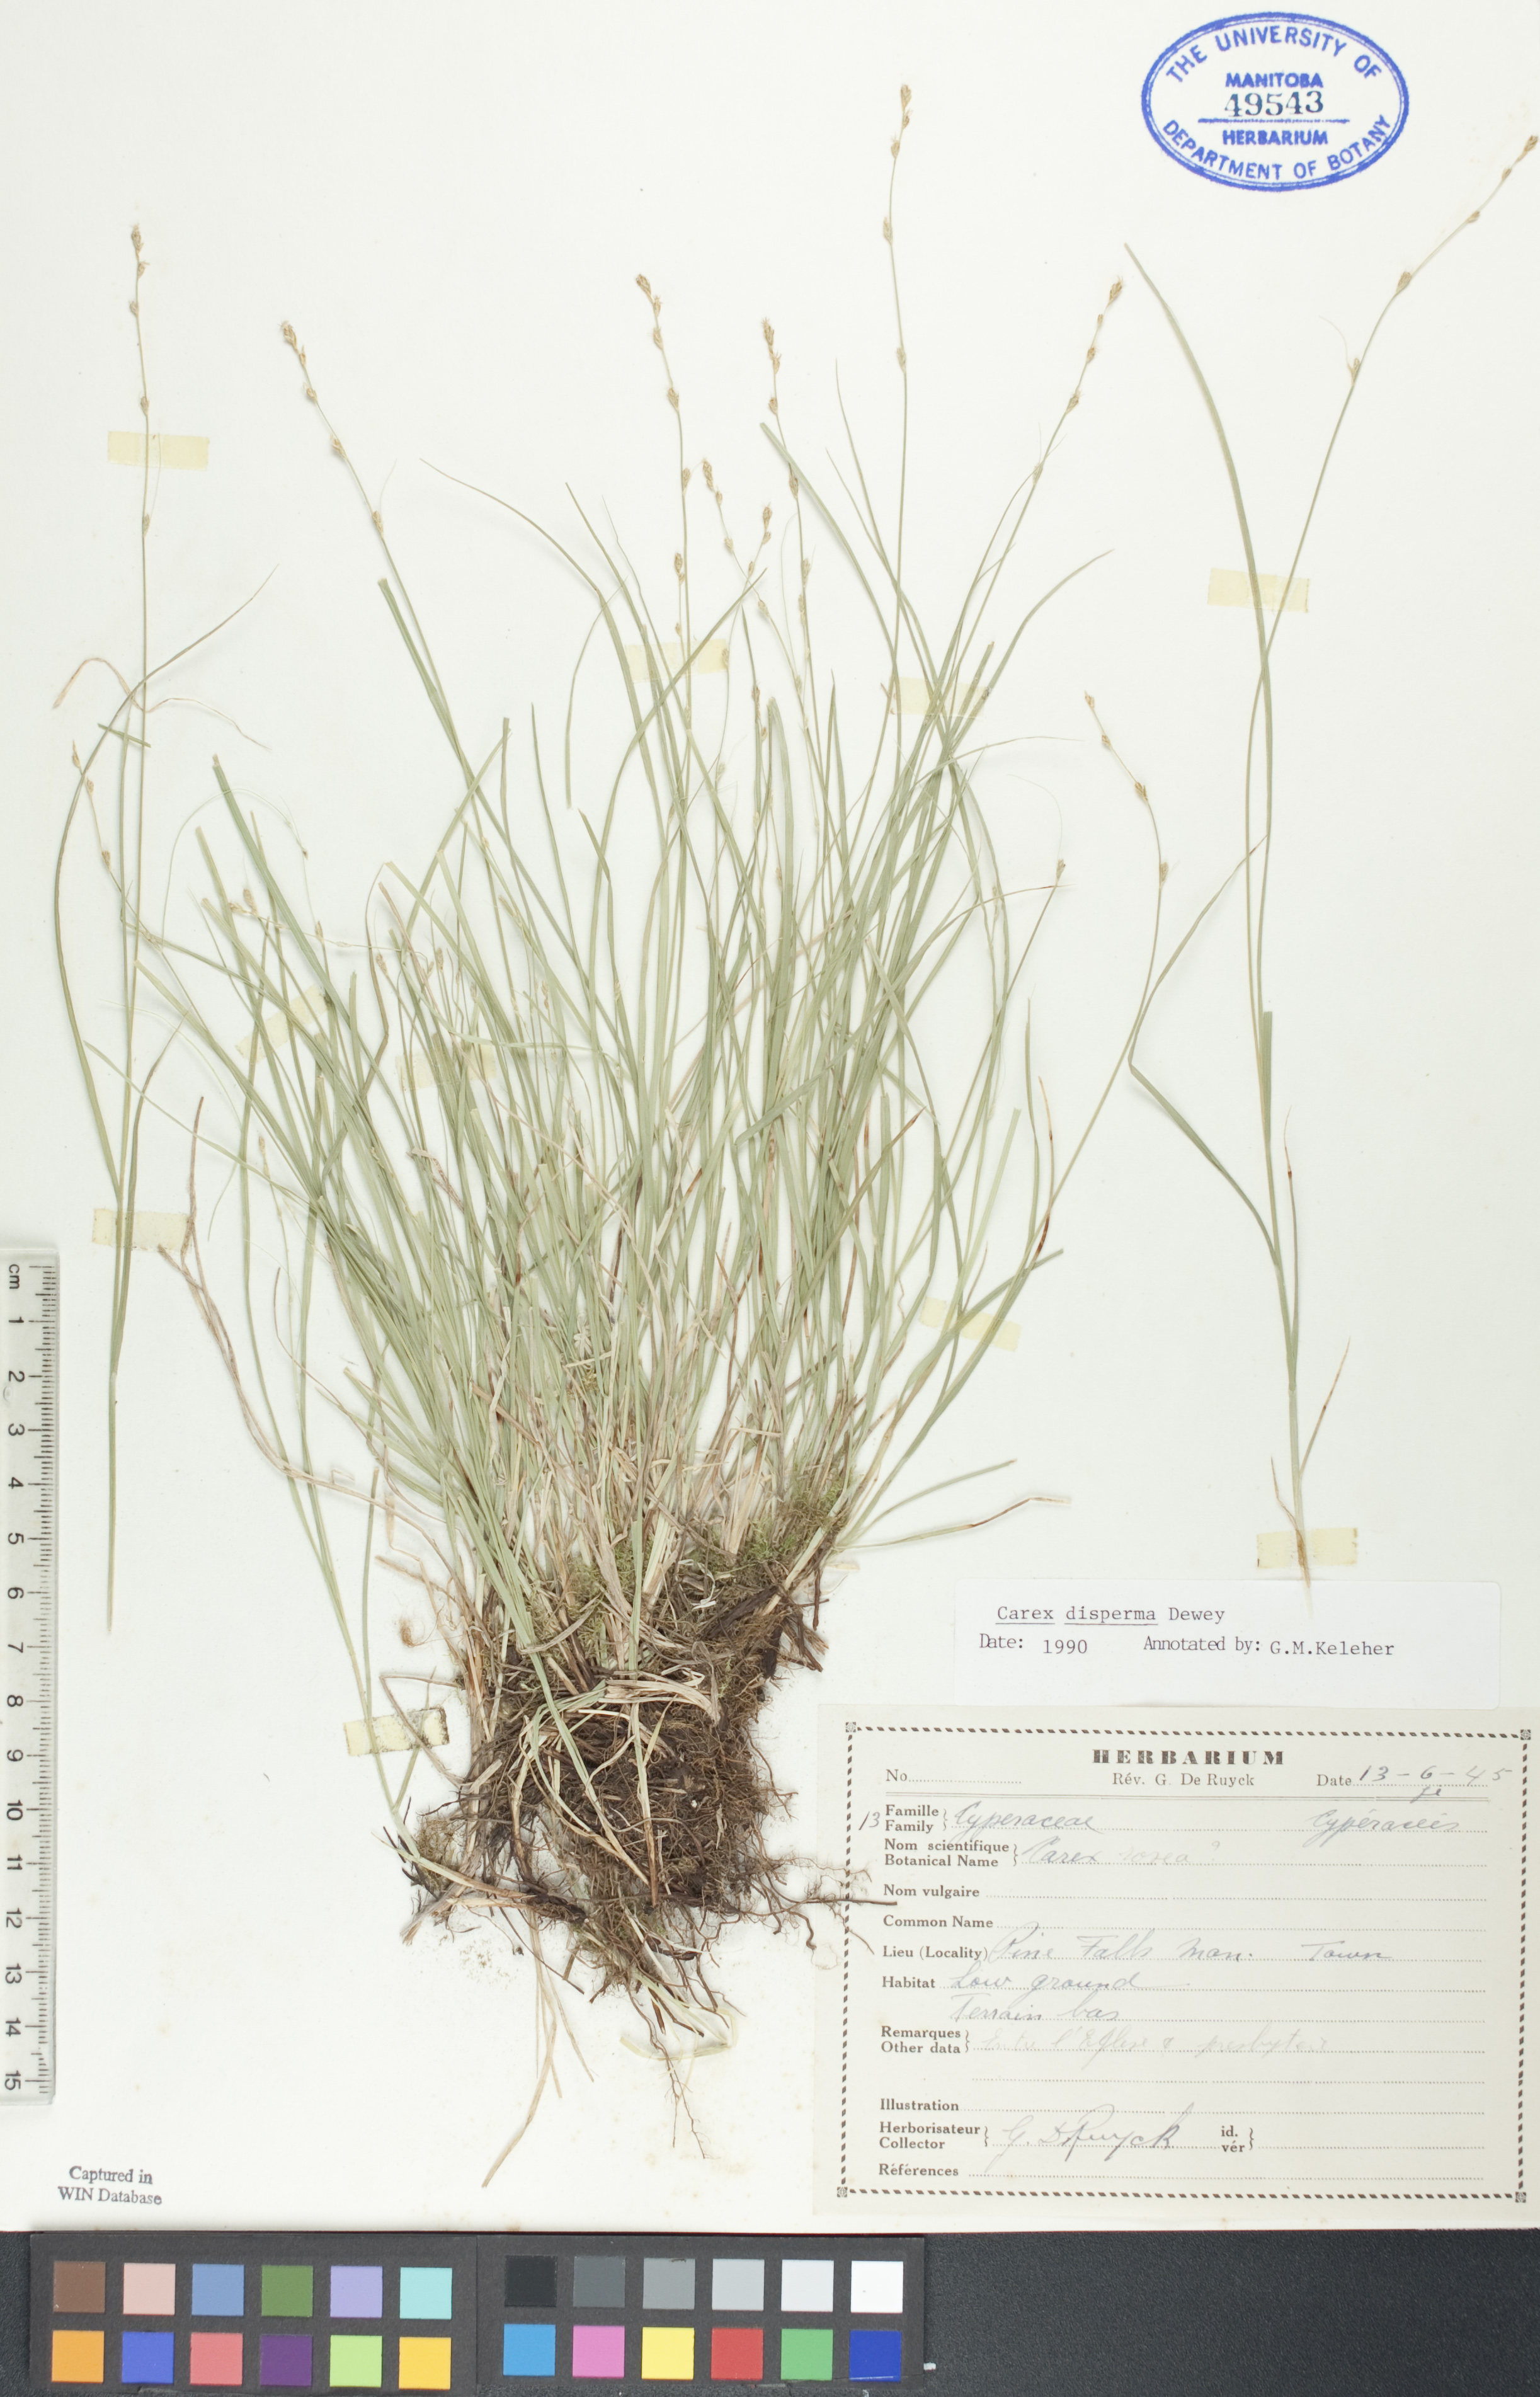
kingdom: Plantae
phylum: Tracheophyta
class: Liliopsida
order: Poales
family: Cyperaceae
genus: Carex
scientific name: Carex disperma
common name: Short-leaved sedge
